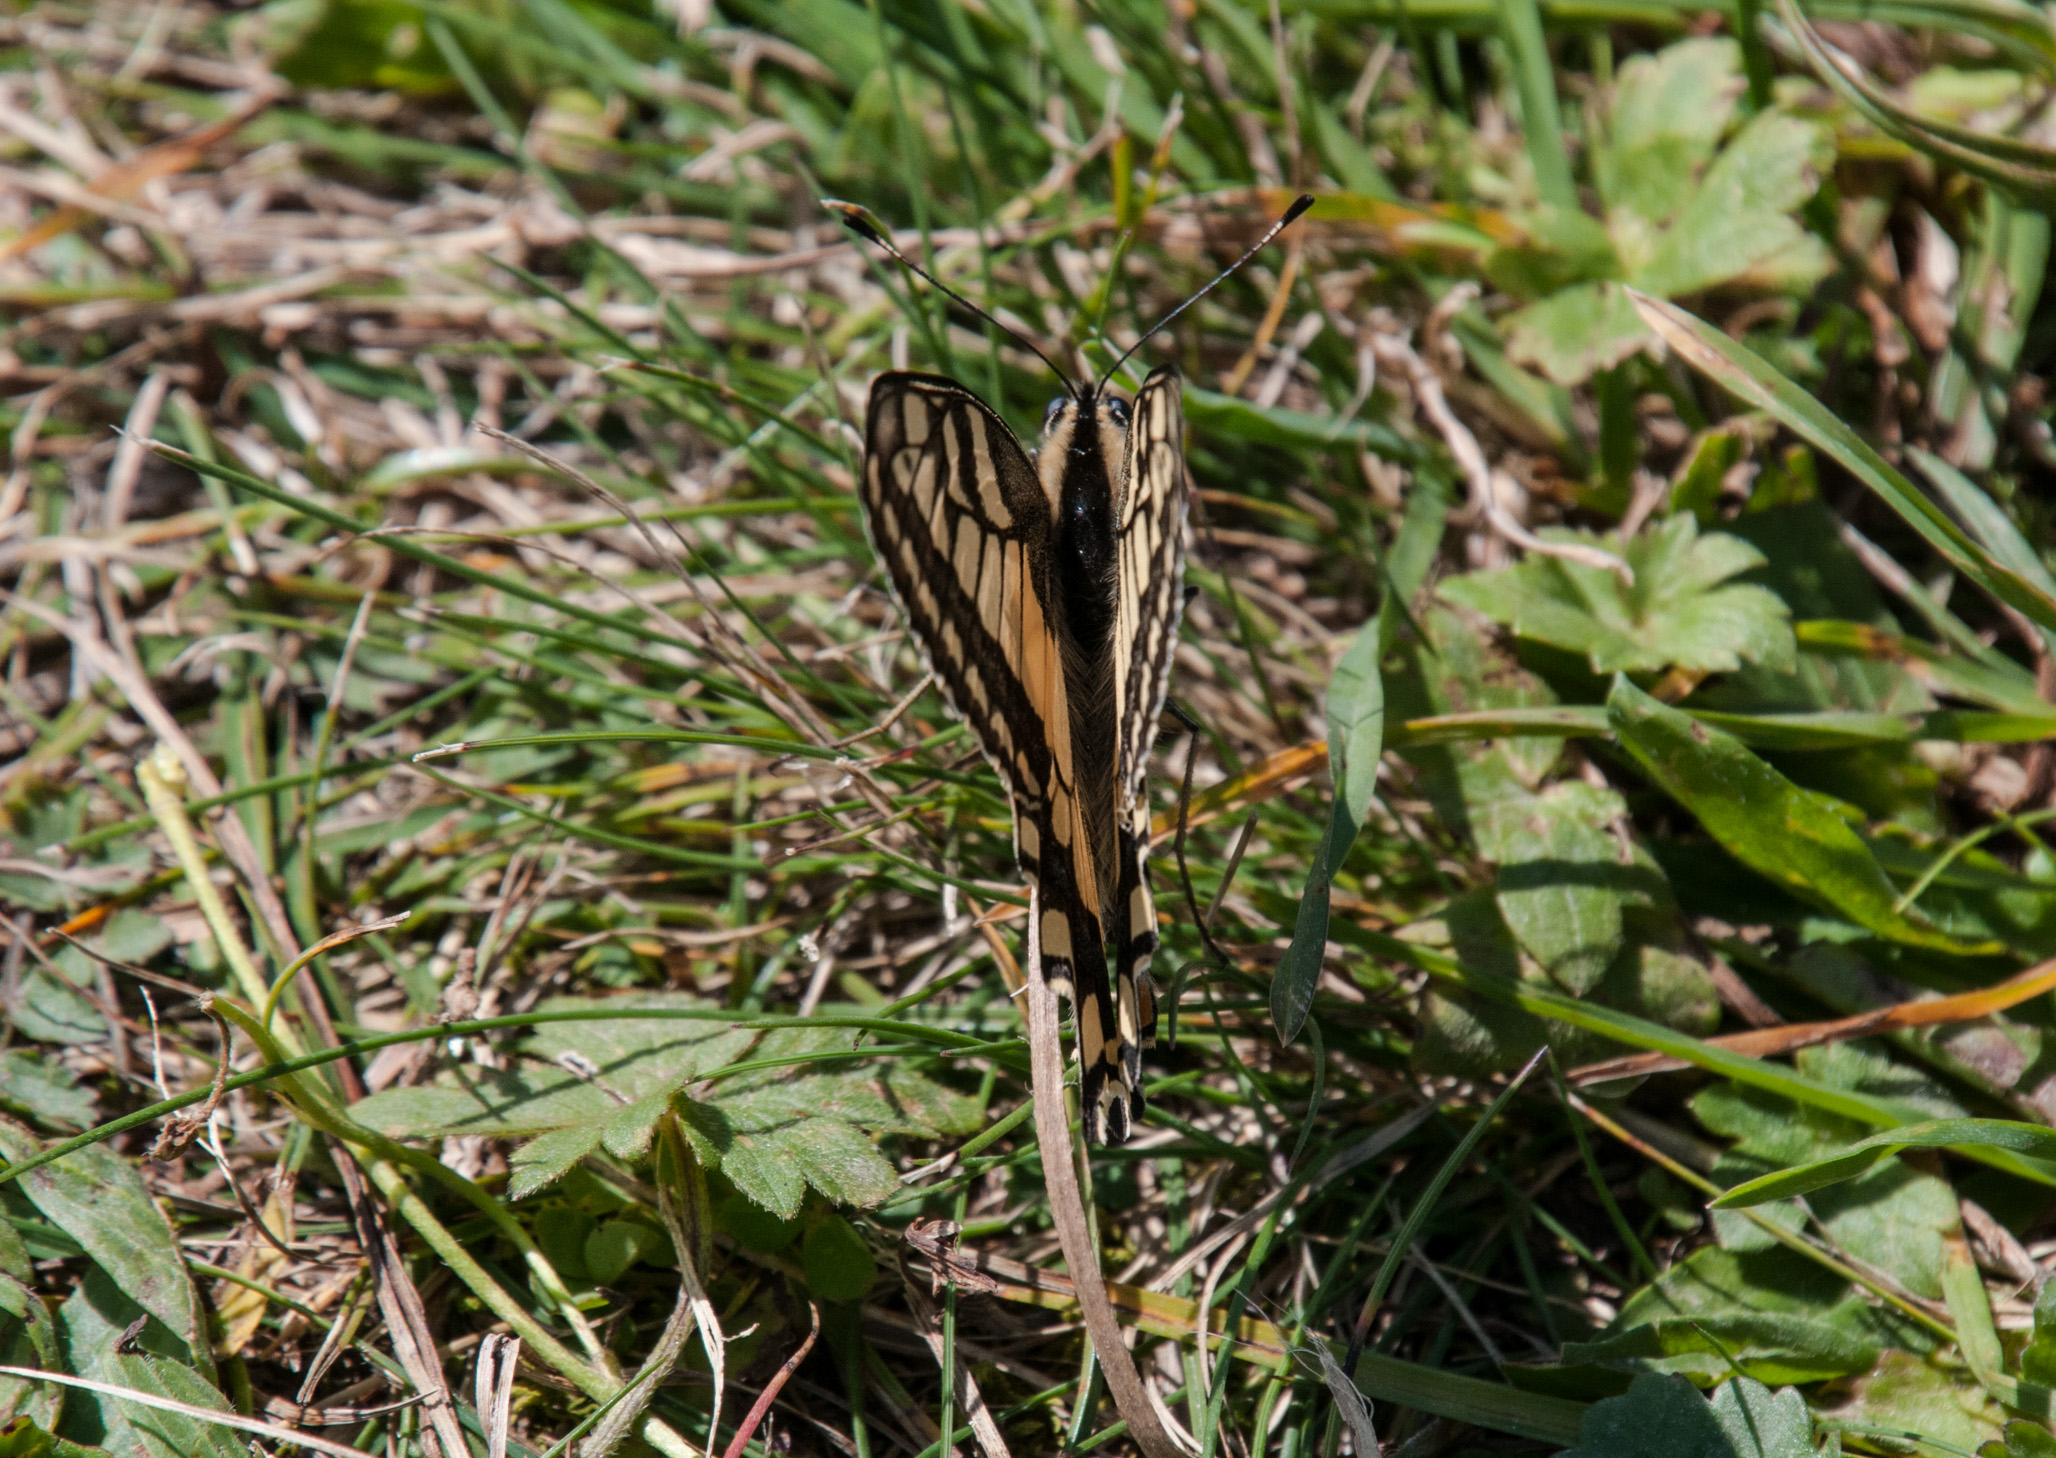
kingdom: Animalia
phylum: Arthropoda
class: Insecta
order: Lepidoptera
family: Papilionidae
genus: Papilio
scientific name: Papilio machaon
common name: Swallowtail
